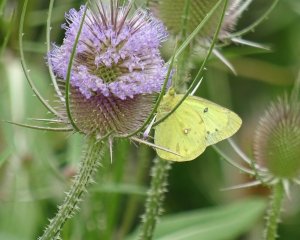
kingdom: Animalia
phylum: Arthropoda
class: Insecta
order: Lepidoptera
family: Pieridae
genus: Colias
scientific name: Colias philodice
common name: Clouded Sulphur
